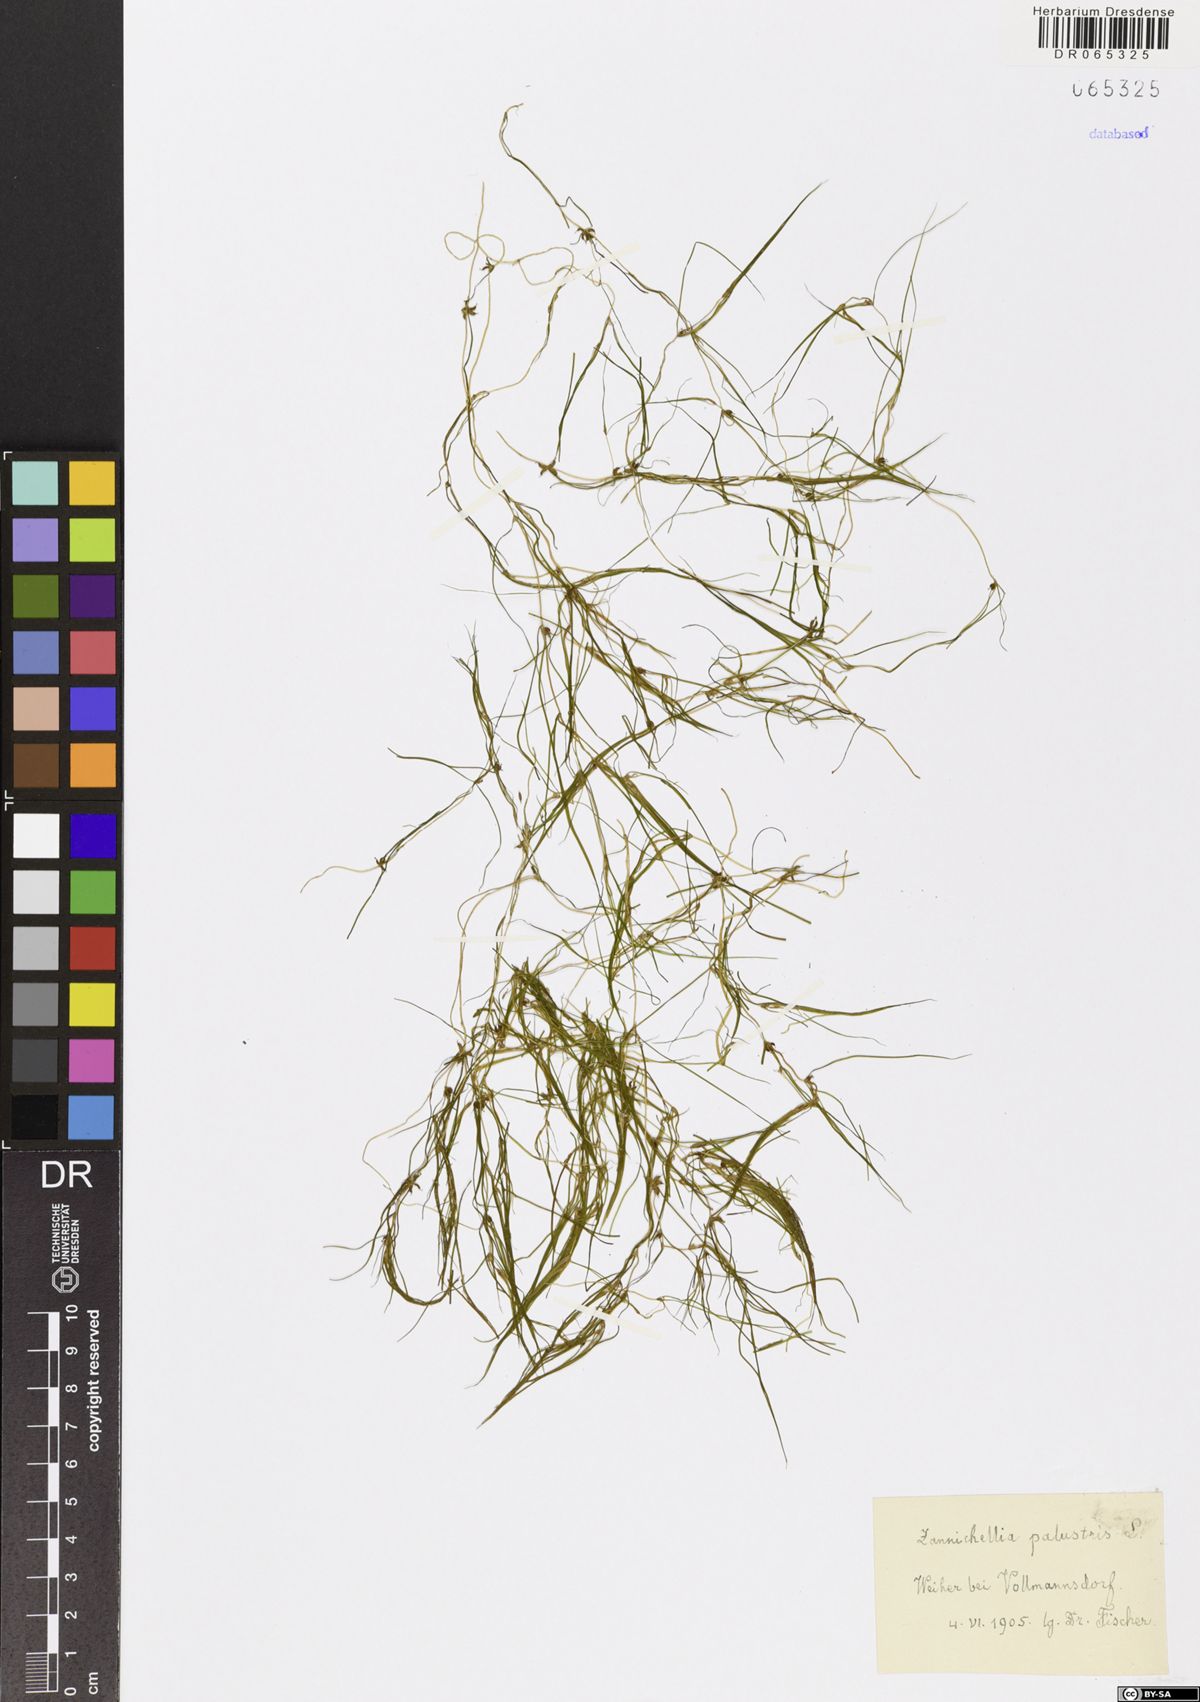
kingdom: Plantae
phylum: Tracheophyta
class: Liliopsida
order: Alismatales
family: Potamogetonaceae
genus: Zannichellia
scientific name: Zannichellia palustris
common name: Horned pondweed
